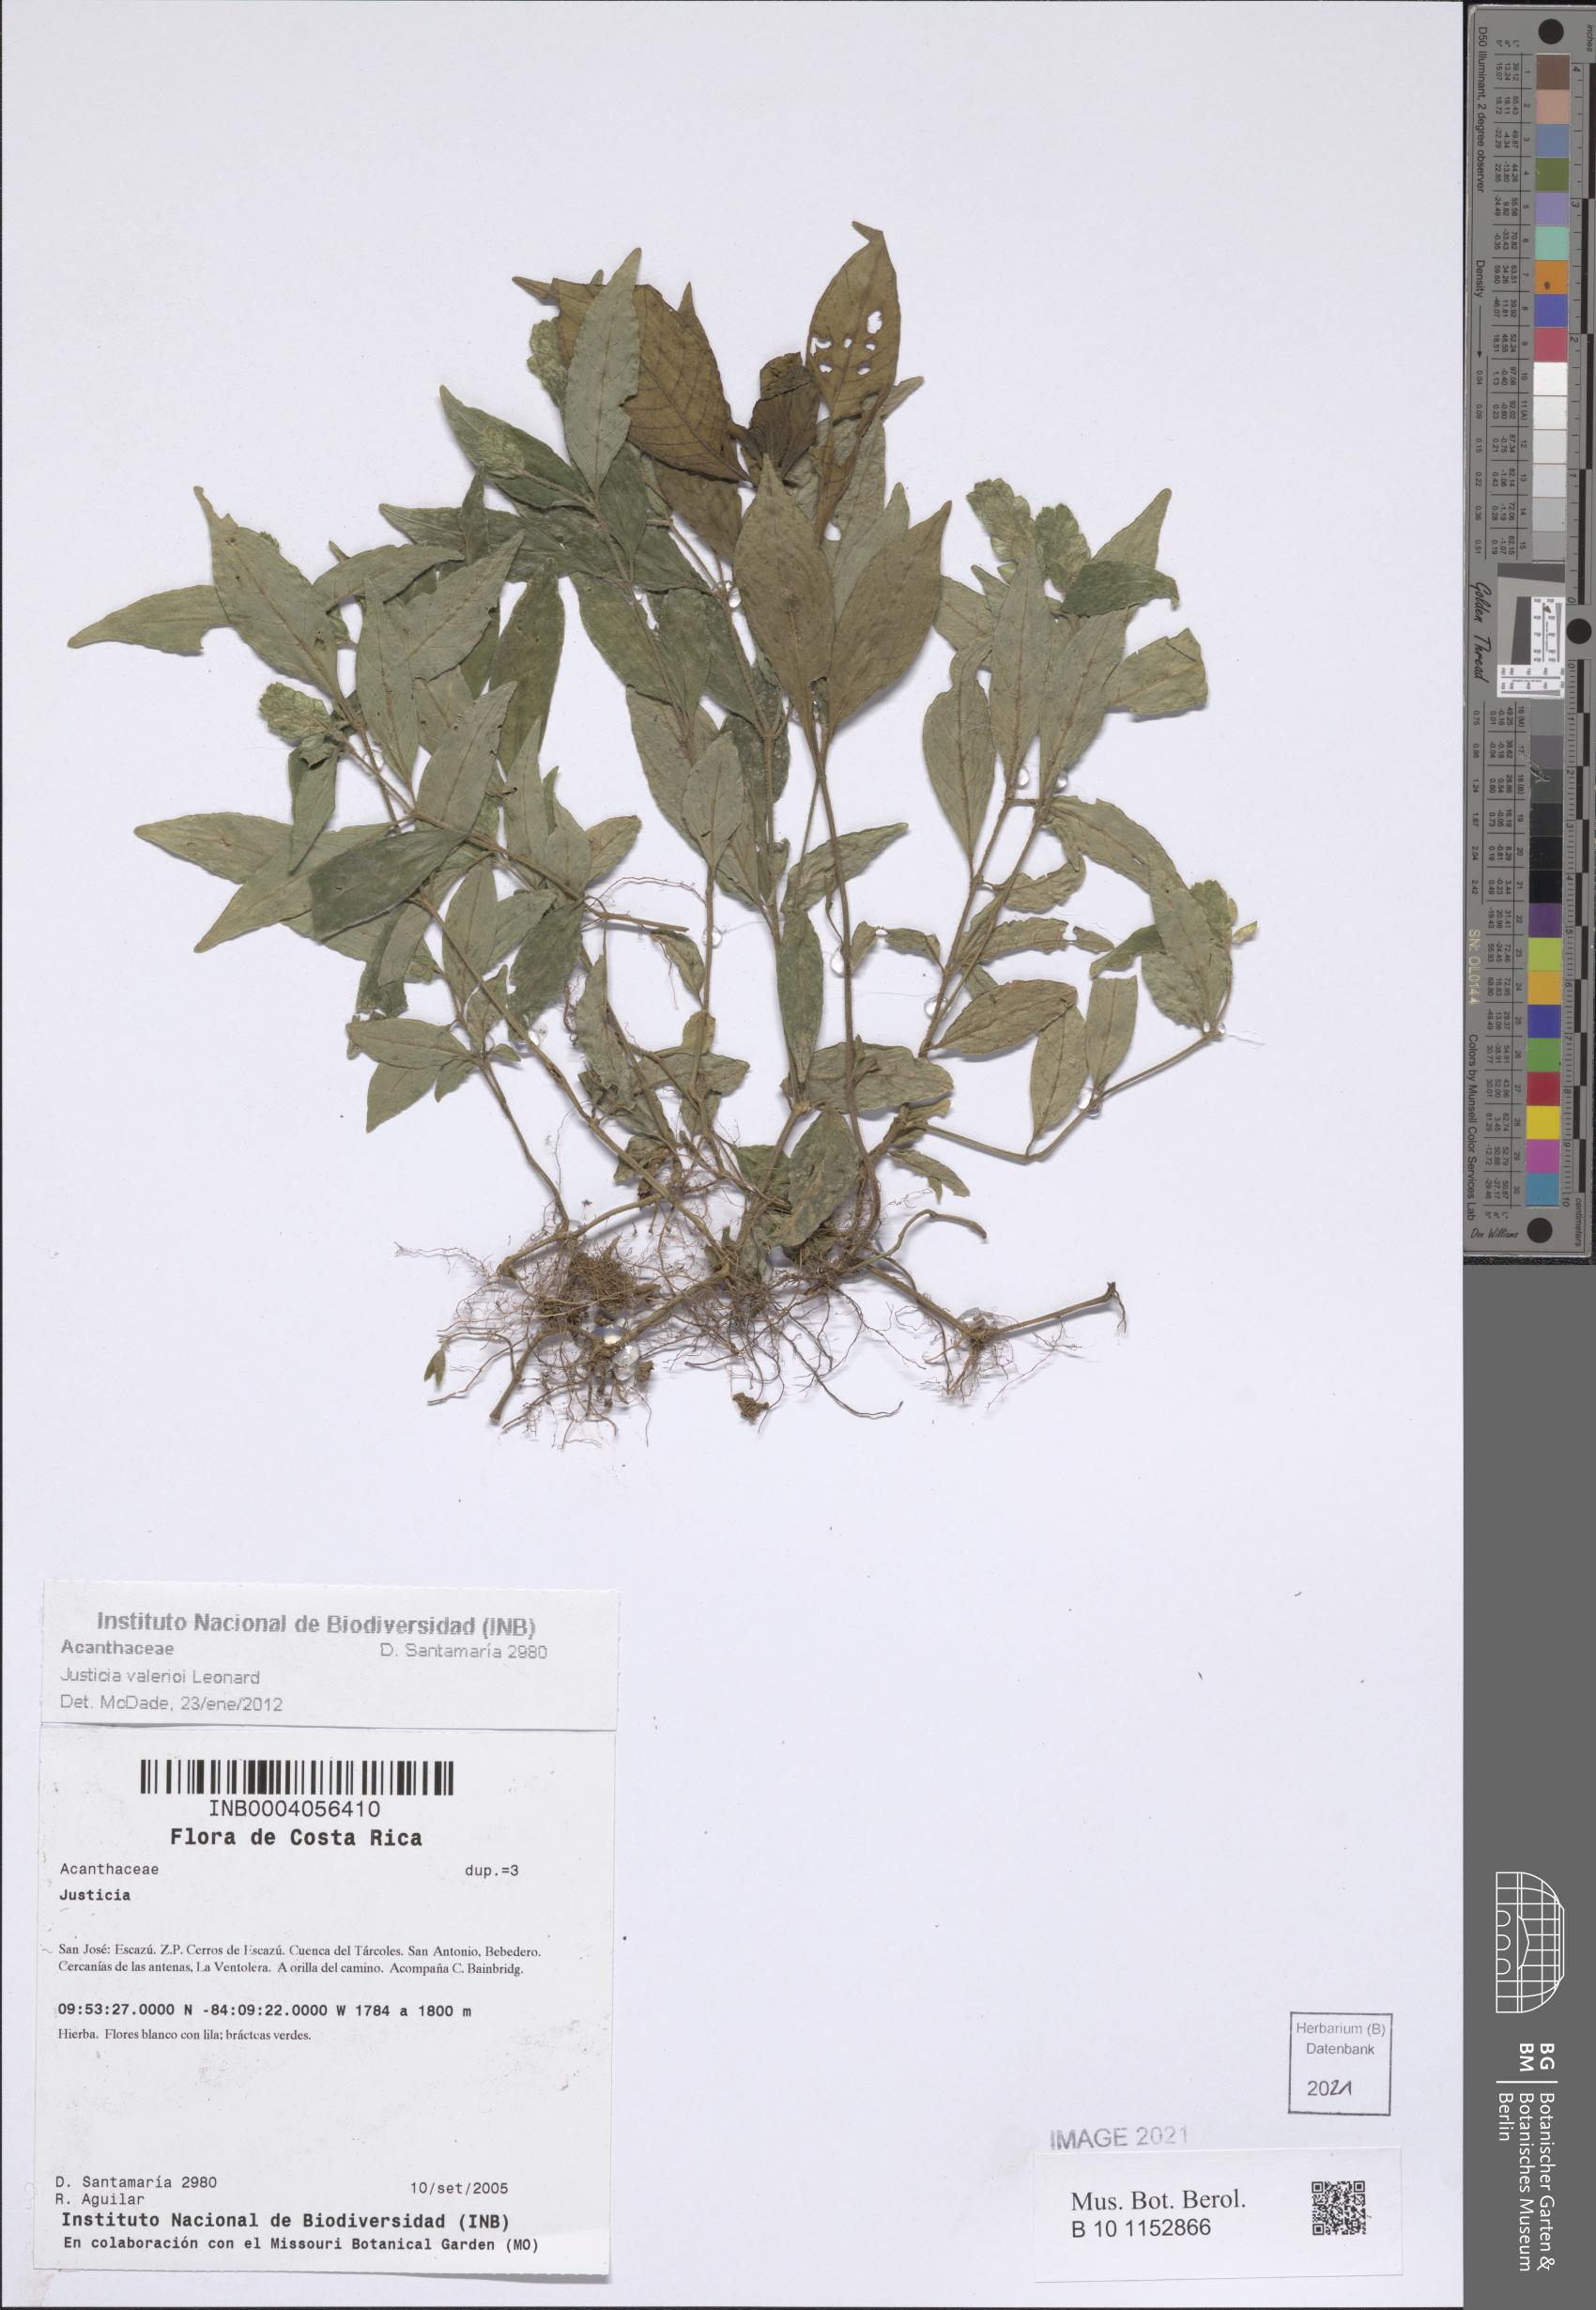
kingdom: Plantae
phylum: Tracheophyta
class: Magnoliopsida
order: Lamiales
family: Acanthaceae
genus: Justicia
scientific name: Justicia valerioi
